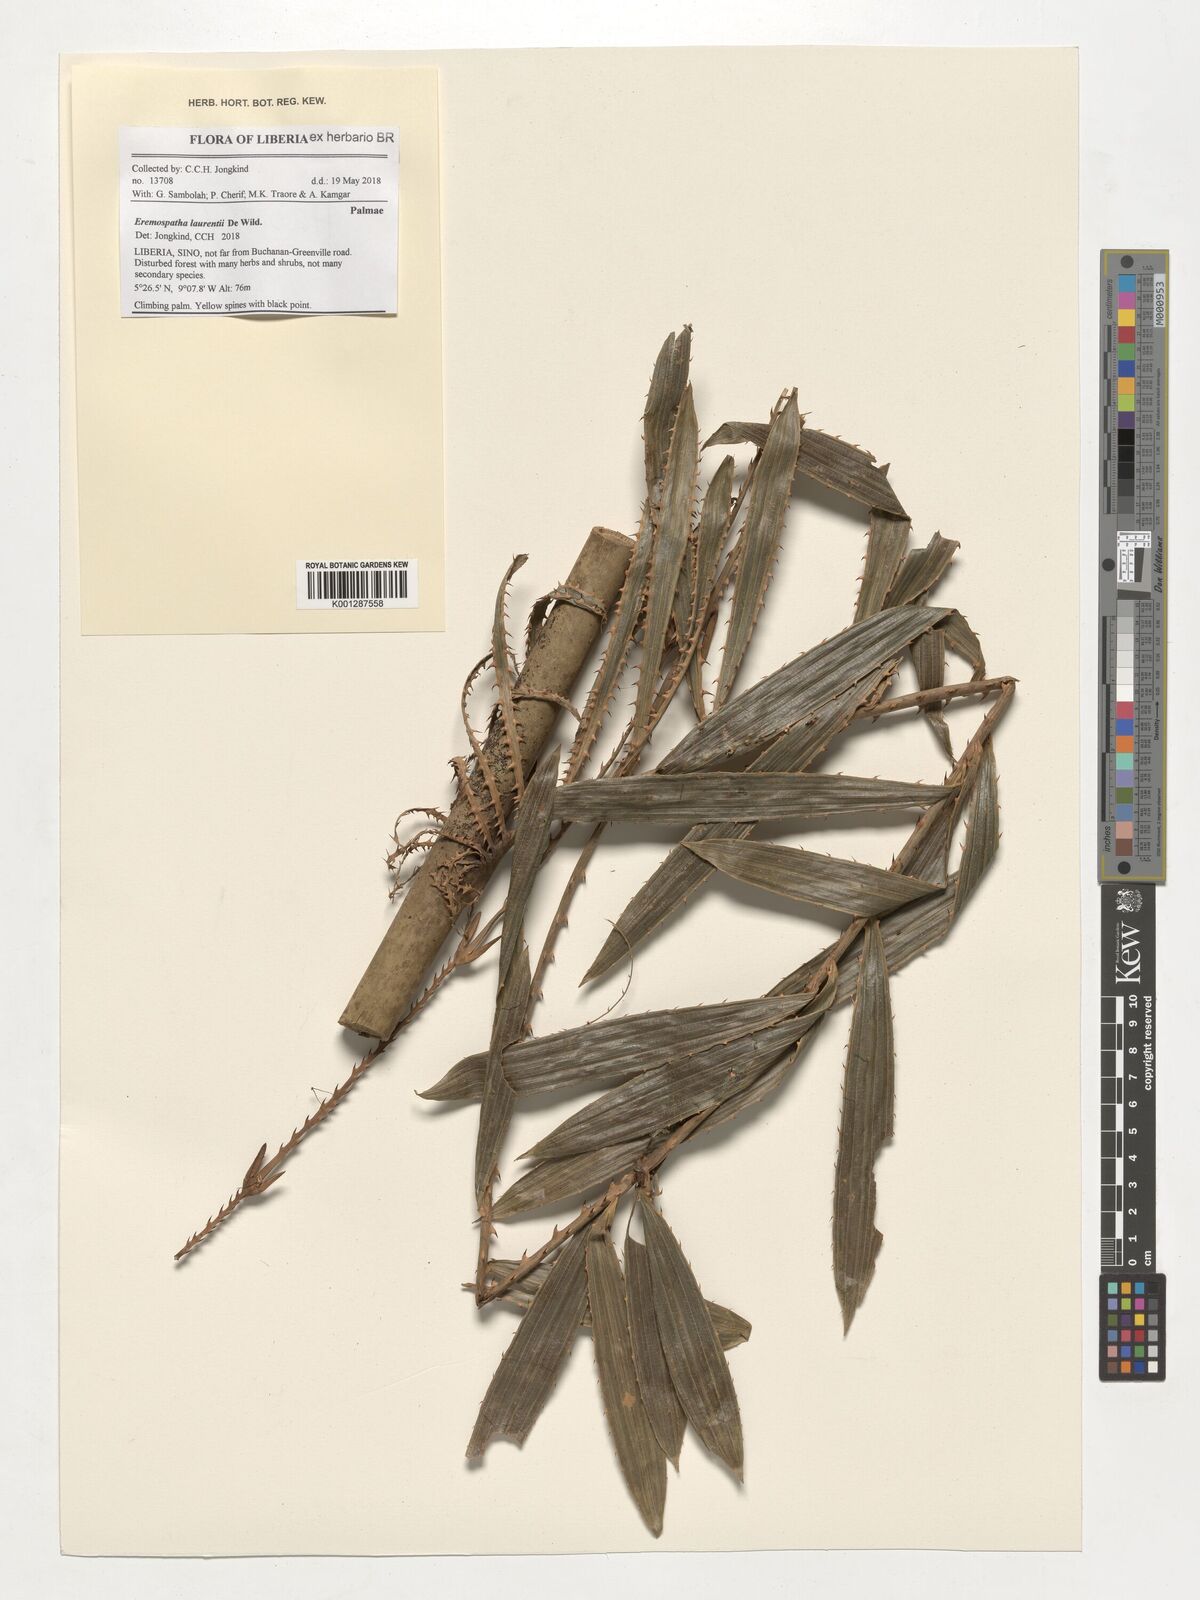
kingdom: Plantae
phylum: Tracheophyta
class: Liliopsida
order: Arecales
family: Arecaceae
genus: Eremospatha
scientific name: Eremospatha laurentii
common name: Rattan palm
